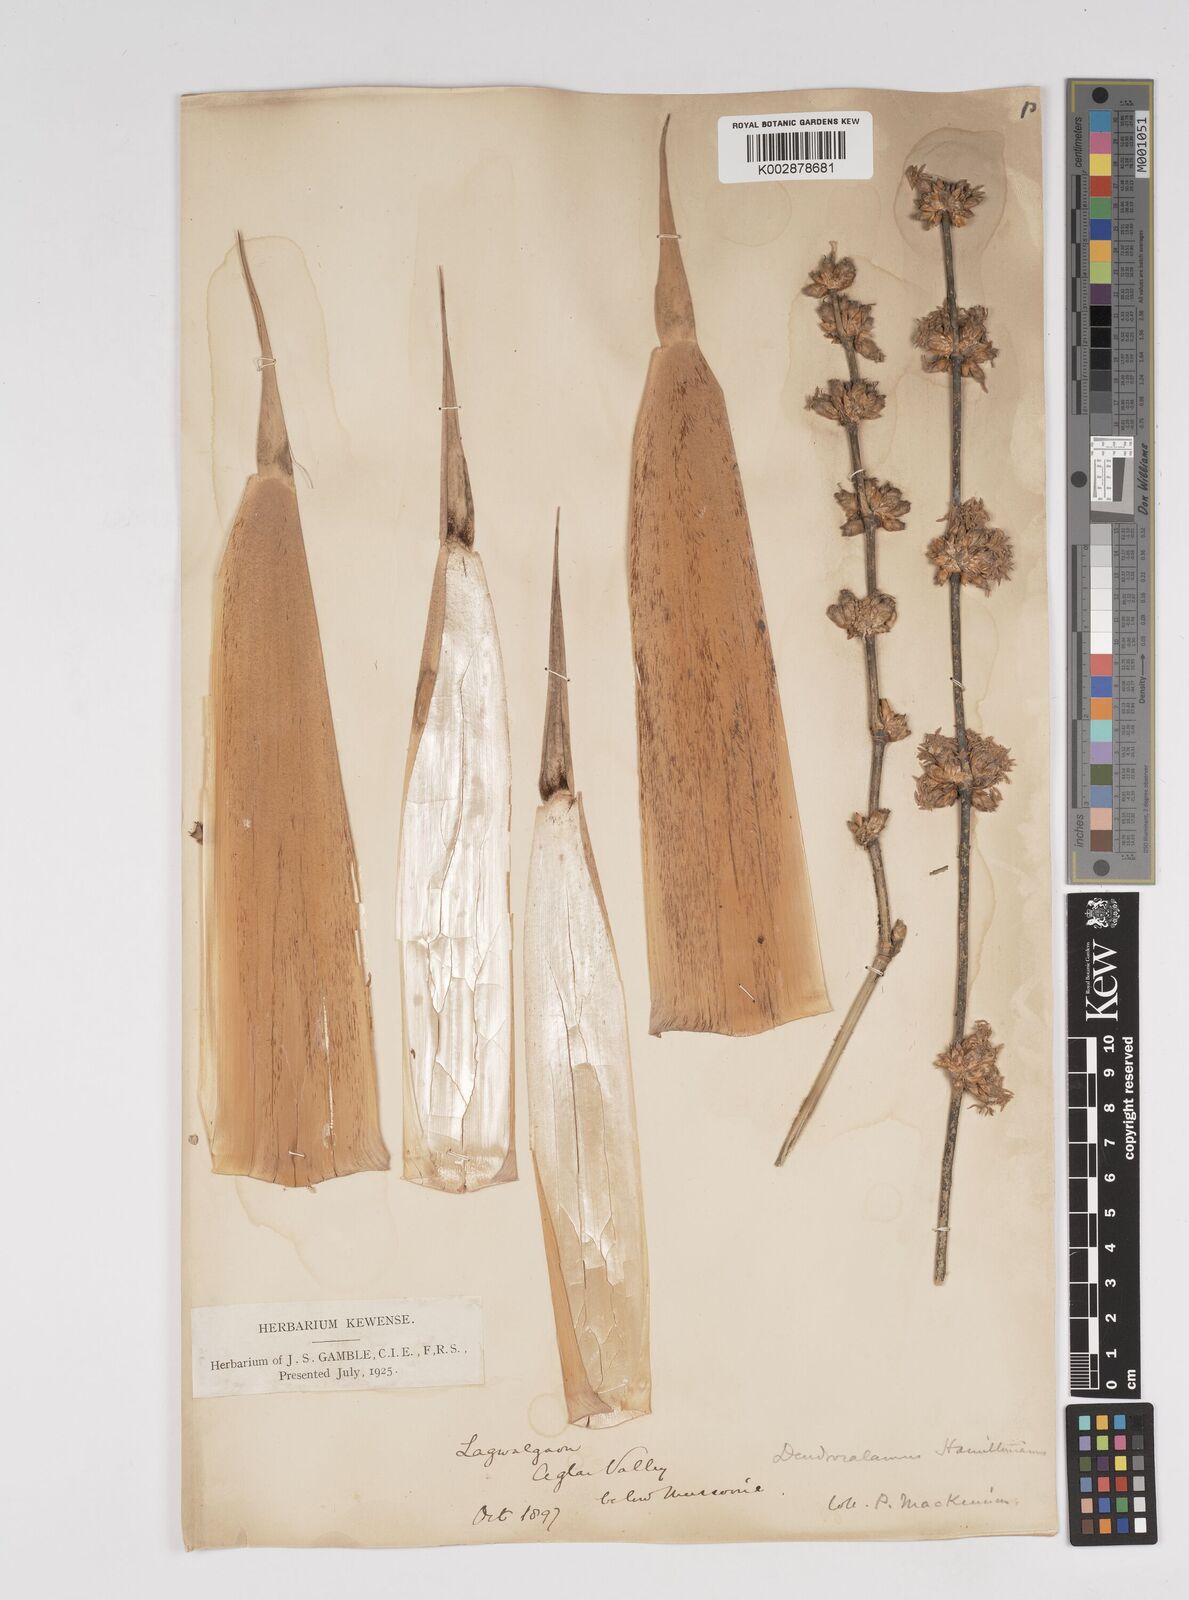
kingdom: Plantae
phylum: Tracheophyta
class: Liliopsida
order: Poales
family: Poaceae
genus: Dendrocalamus
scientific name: Dendrocalamus hamiltonii
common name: Tama bamboo
